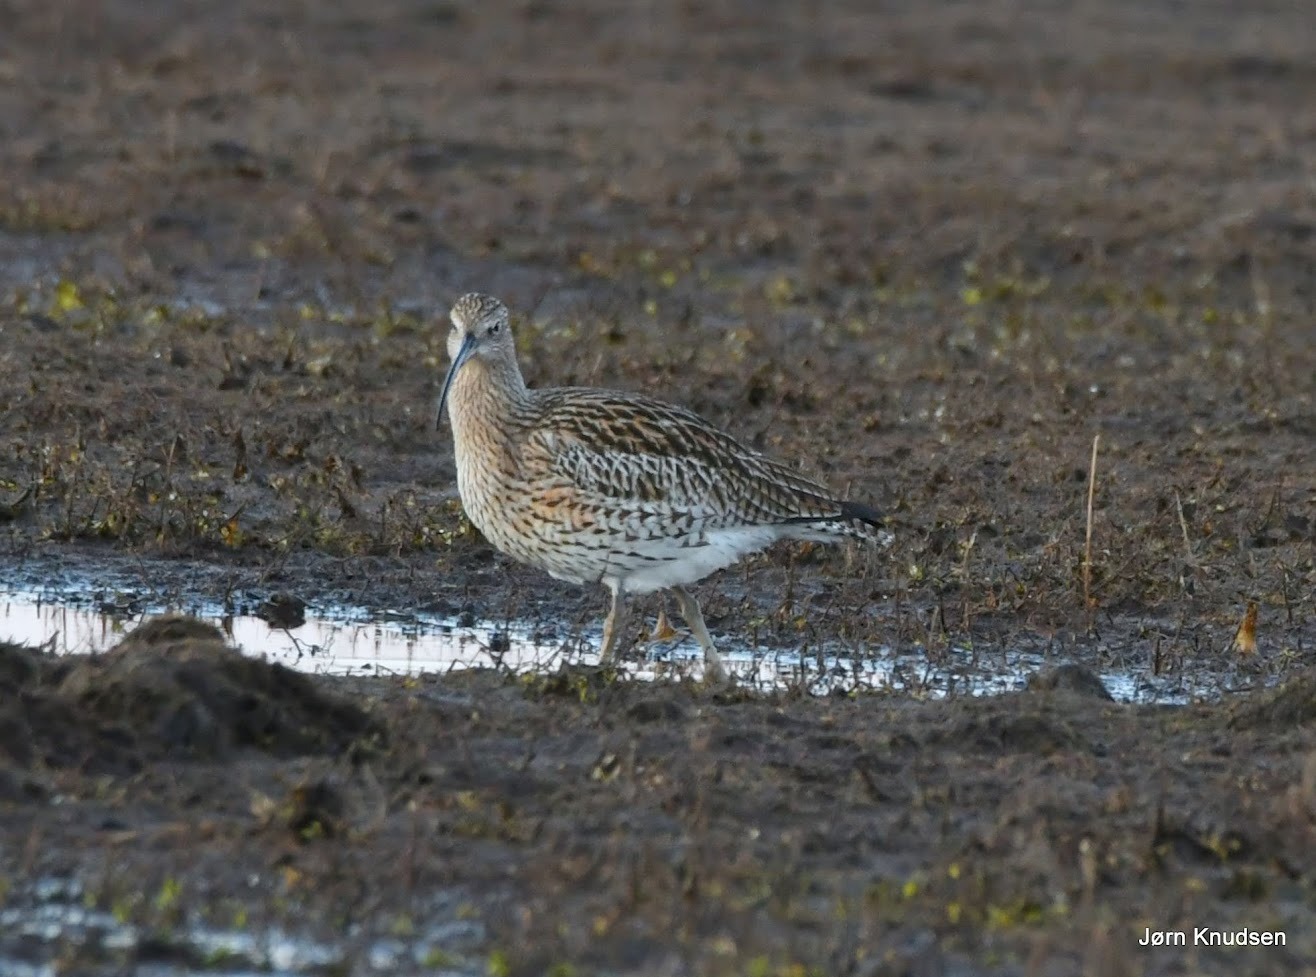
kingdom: Animalia
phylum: Chordata
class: Aves
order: Charadriiformes
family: Scolopacidae
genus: Numenius
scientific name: Numenius arquata
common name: Storspove
